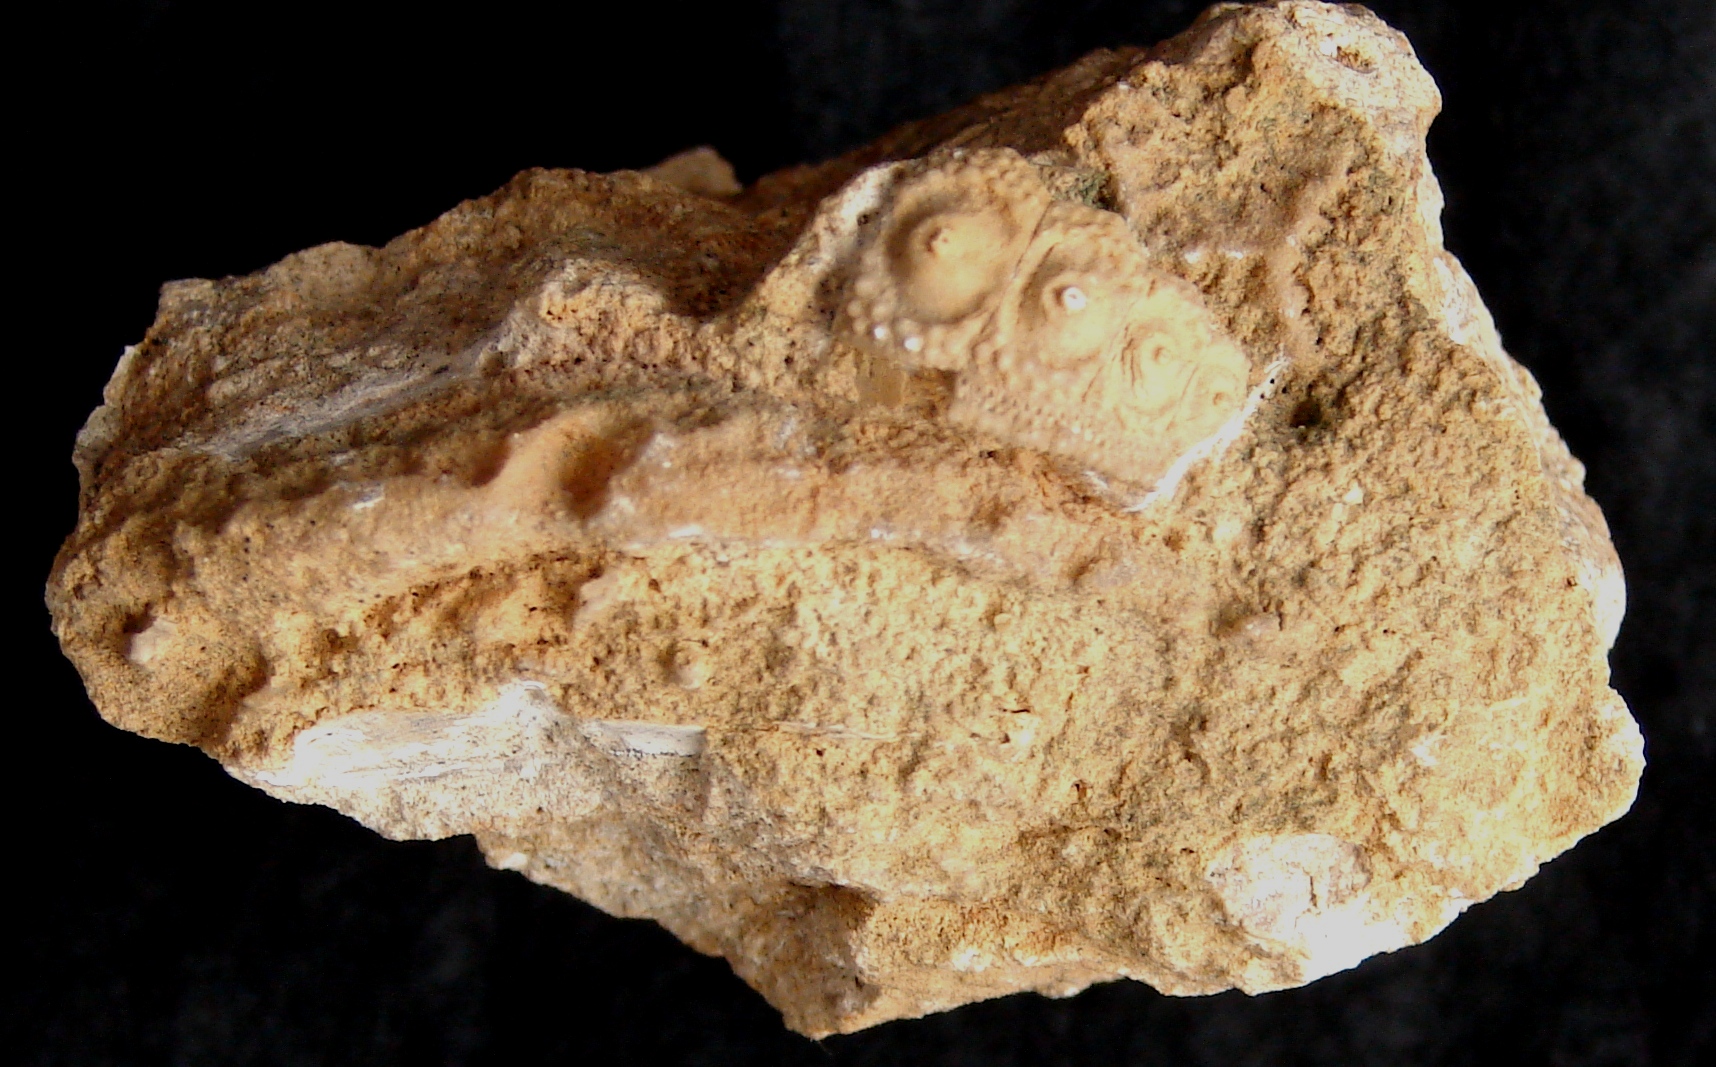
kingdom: Animalia
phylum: Echinodermata
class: Echinoidea
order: Cidaroida
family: Polycidaridae
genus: Anisocidaris
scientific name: Anisocidaris
